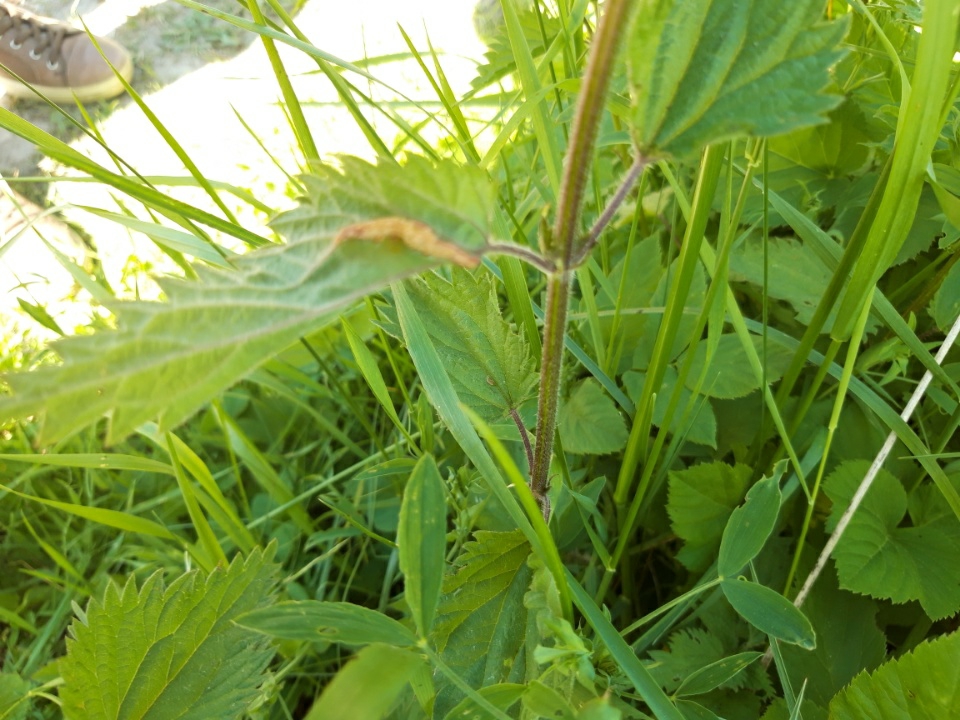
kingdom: Fungi
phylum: Basidiomycota
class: Pucciniomycetes
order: Pucciniales
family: Pucciniaceae
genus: Puccinia
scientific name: Puccinia urticata
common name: nældegalle-tvecellerust
